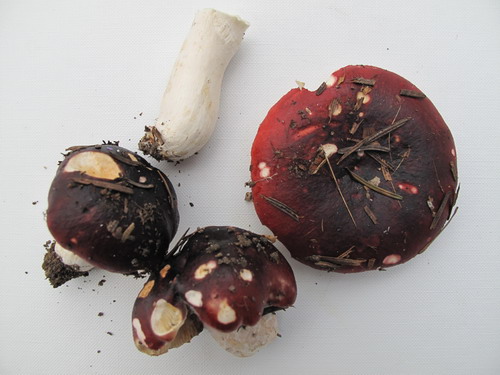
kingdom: Fungi
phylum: Basidiomycota
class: Agaricomycetes
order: Russulales
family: Russulaceae
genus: Russula
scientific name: Russula atropurpurea
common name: purpurbroget skørhat
